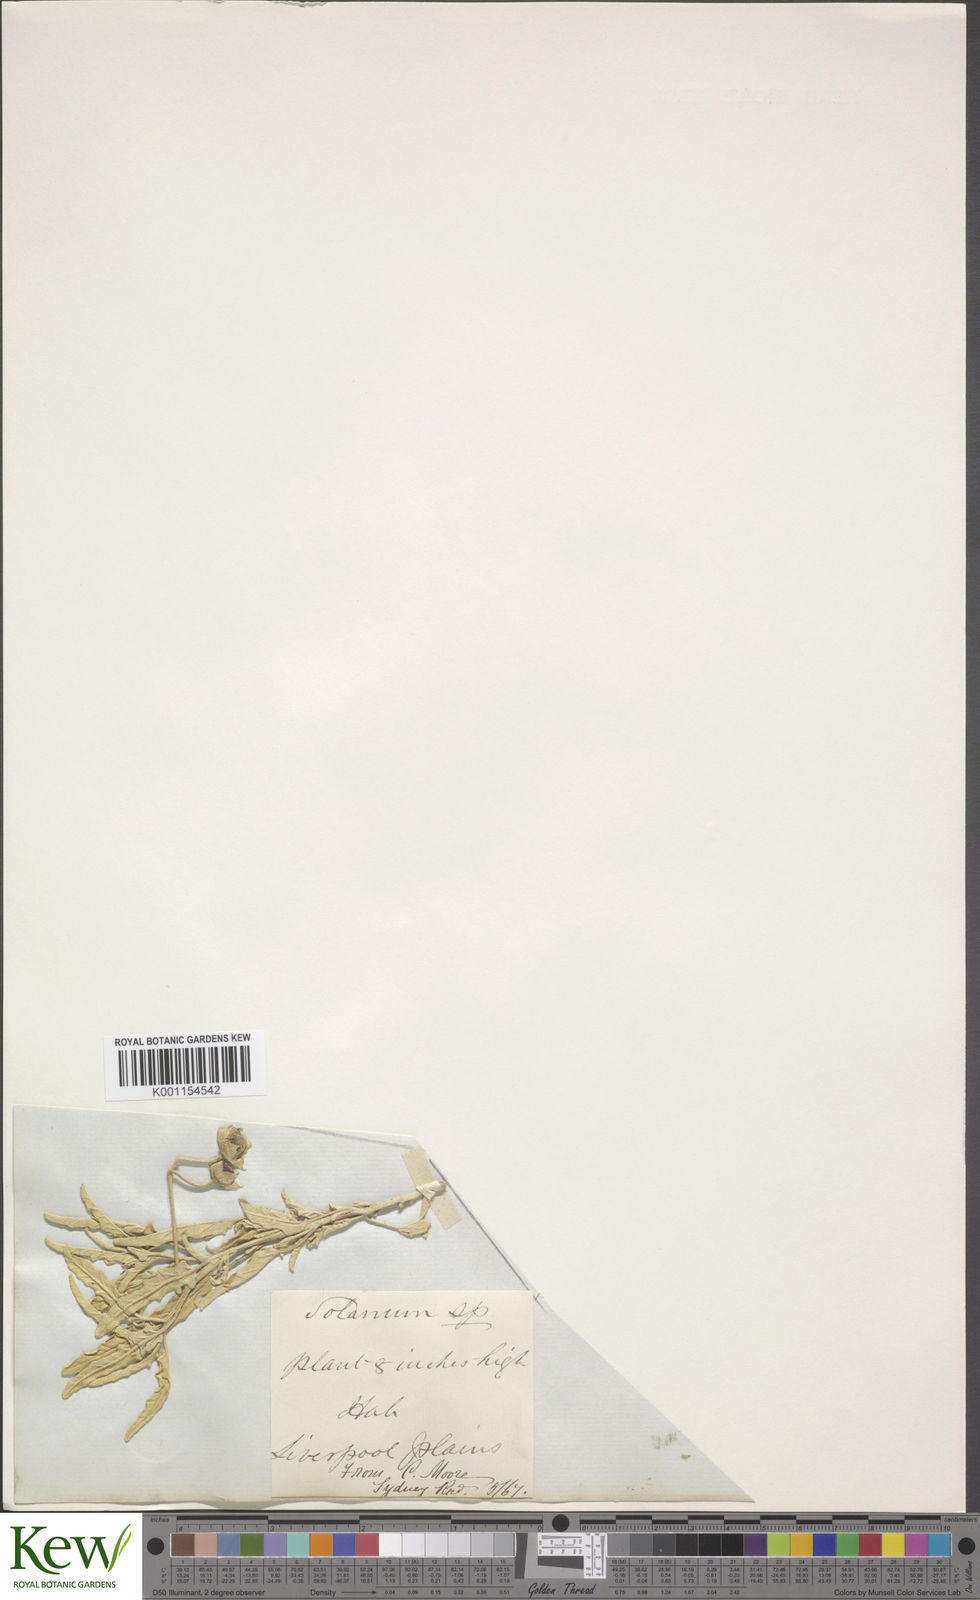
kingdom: Plantae
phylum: Tracheophyta
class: Magnoliopsida
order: Solanales
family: Solanaceae
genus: Solanum
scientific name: Solanum esuriale
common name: Wild tomato
